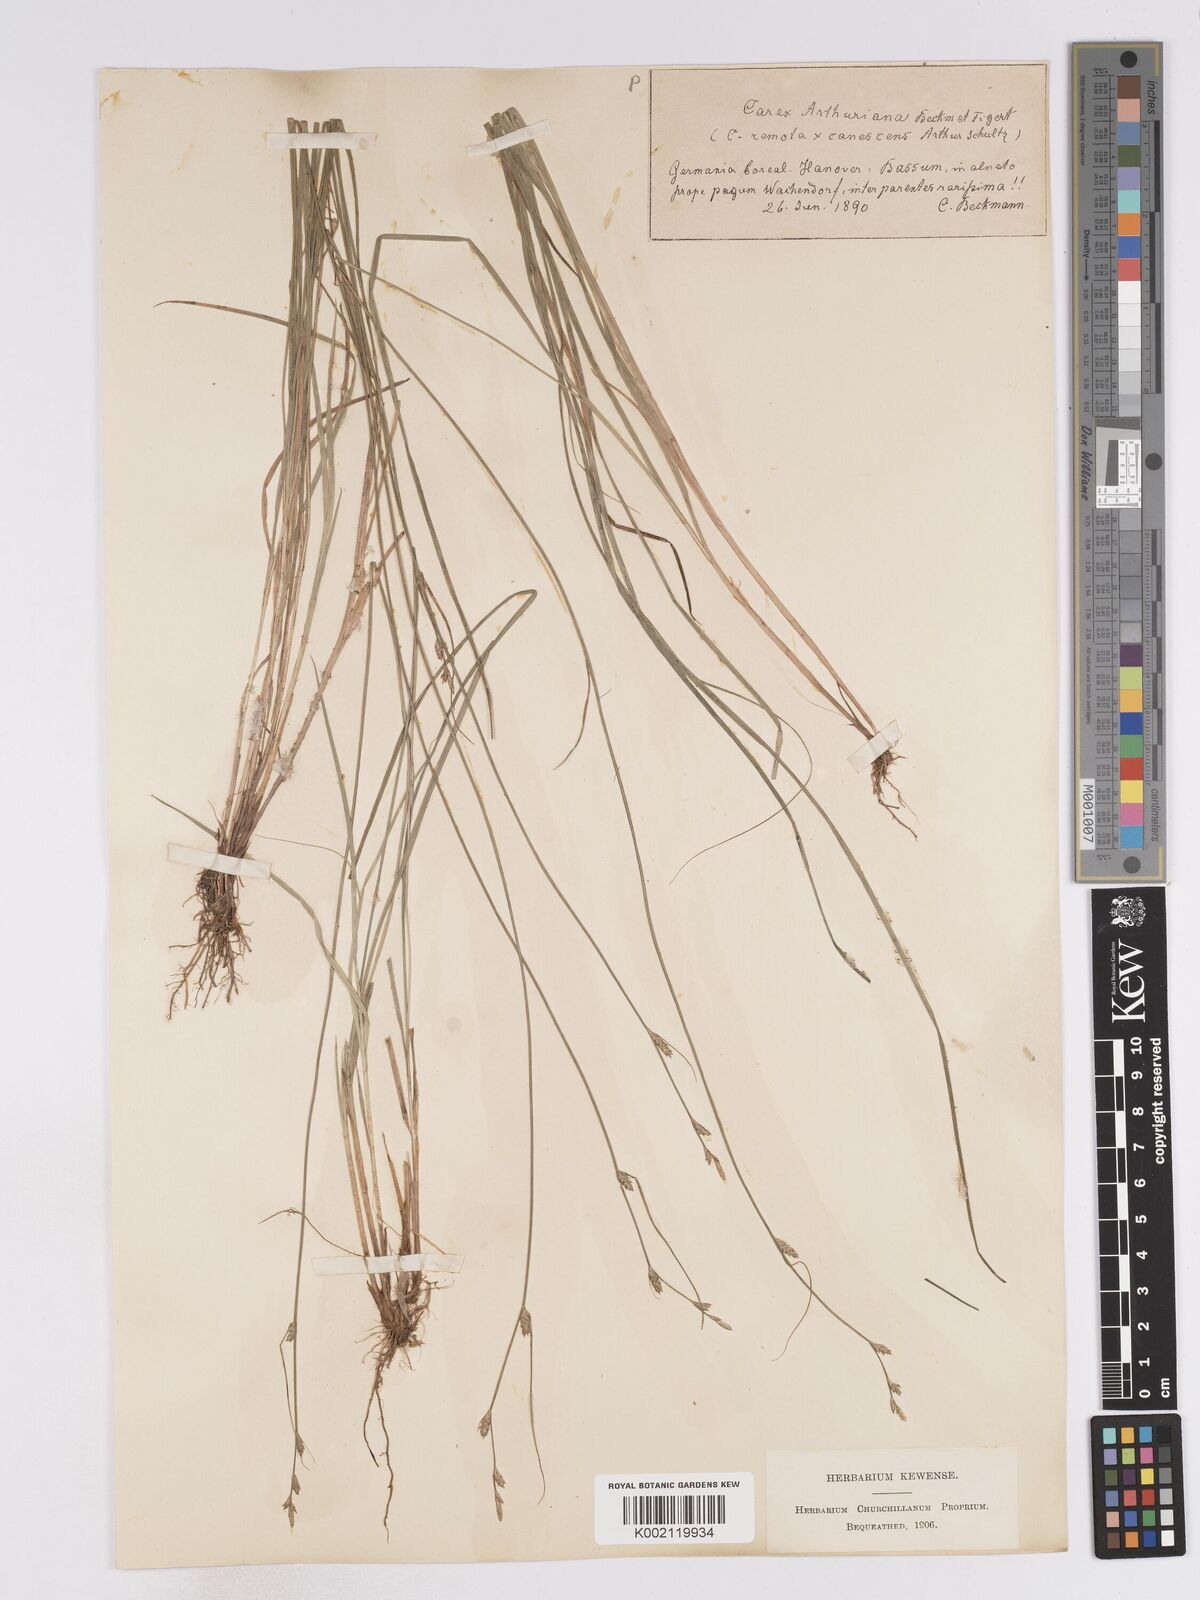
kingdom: Plantae
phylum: Tracheophyta
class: Liliopsida
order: Poales
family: Cyperaceae
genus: Carex
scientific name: Carex curta
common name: White sedge
